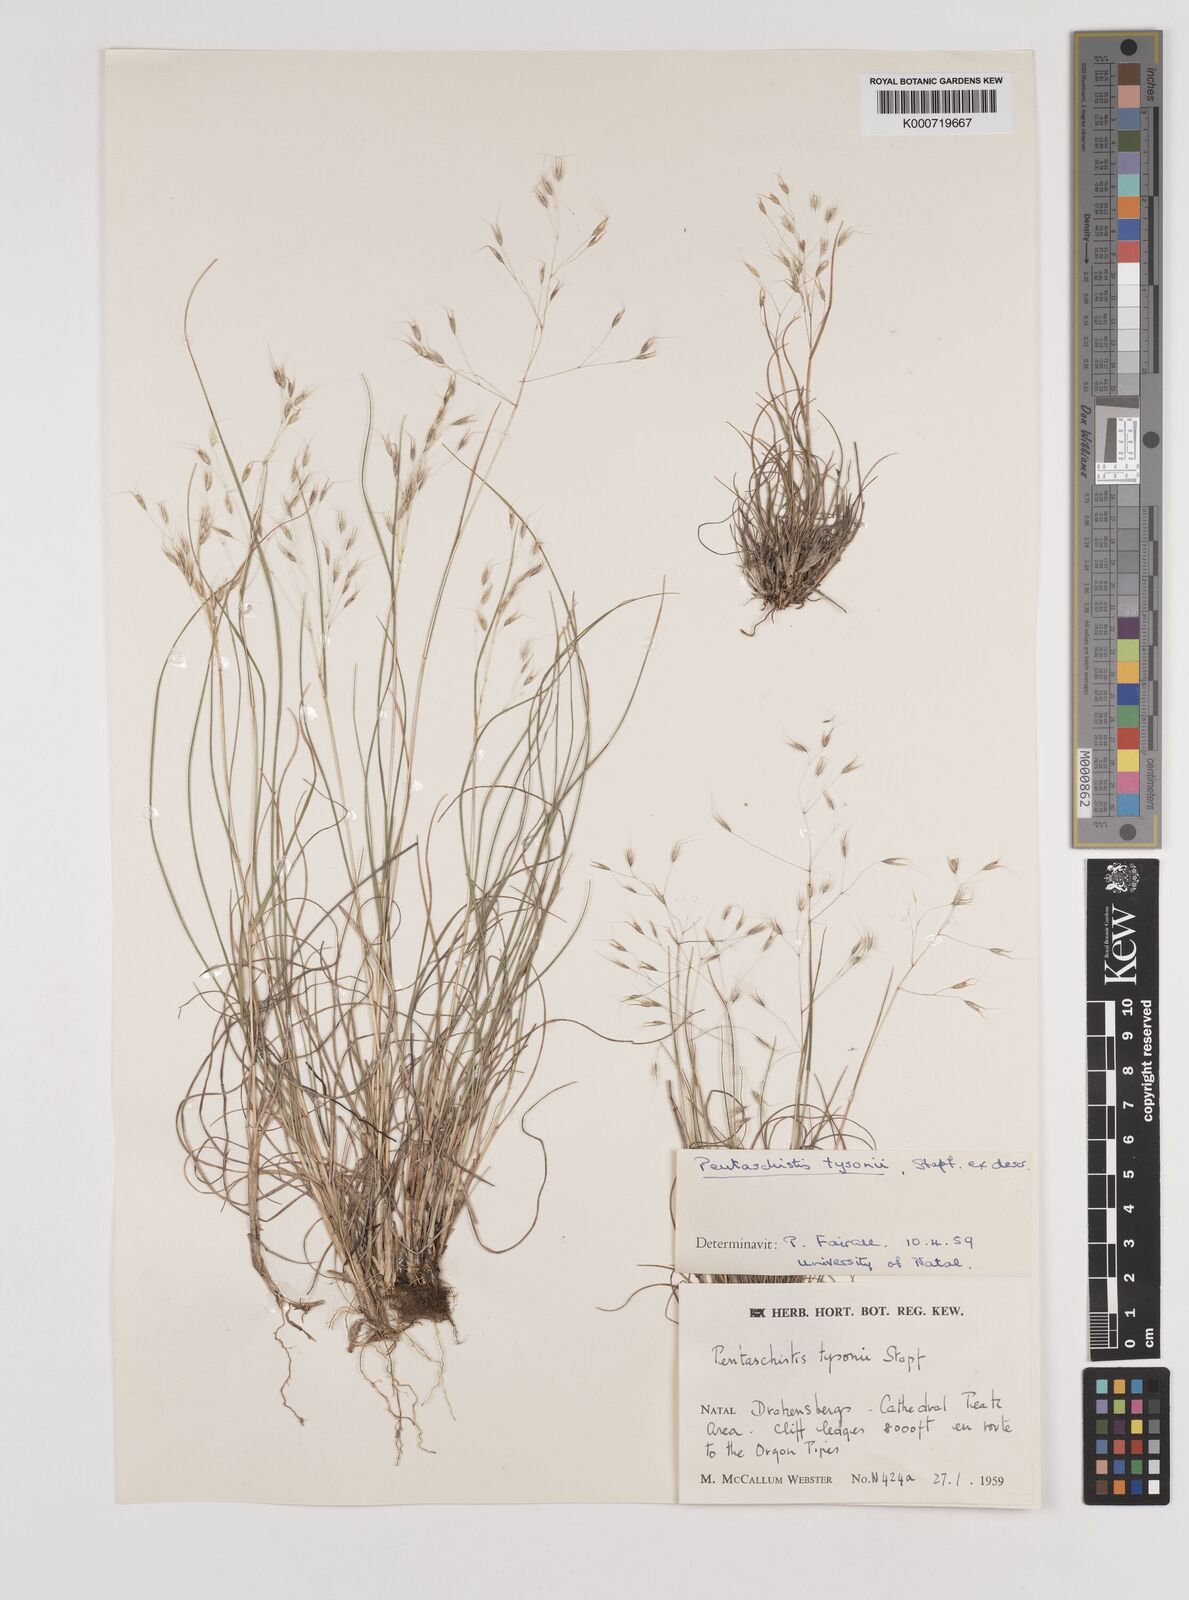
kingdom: Plantae
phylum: Tracheophyta
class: Liliopsida
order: Poales
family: Poaceae
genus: Pentameris
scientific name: Pentameris tysonii
